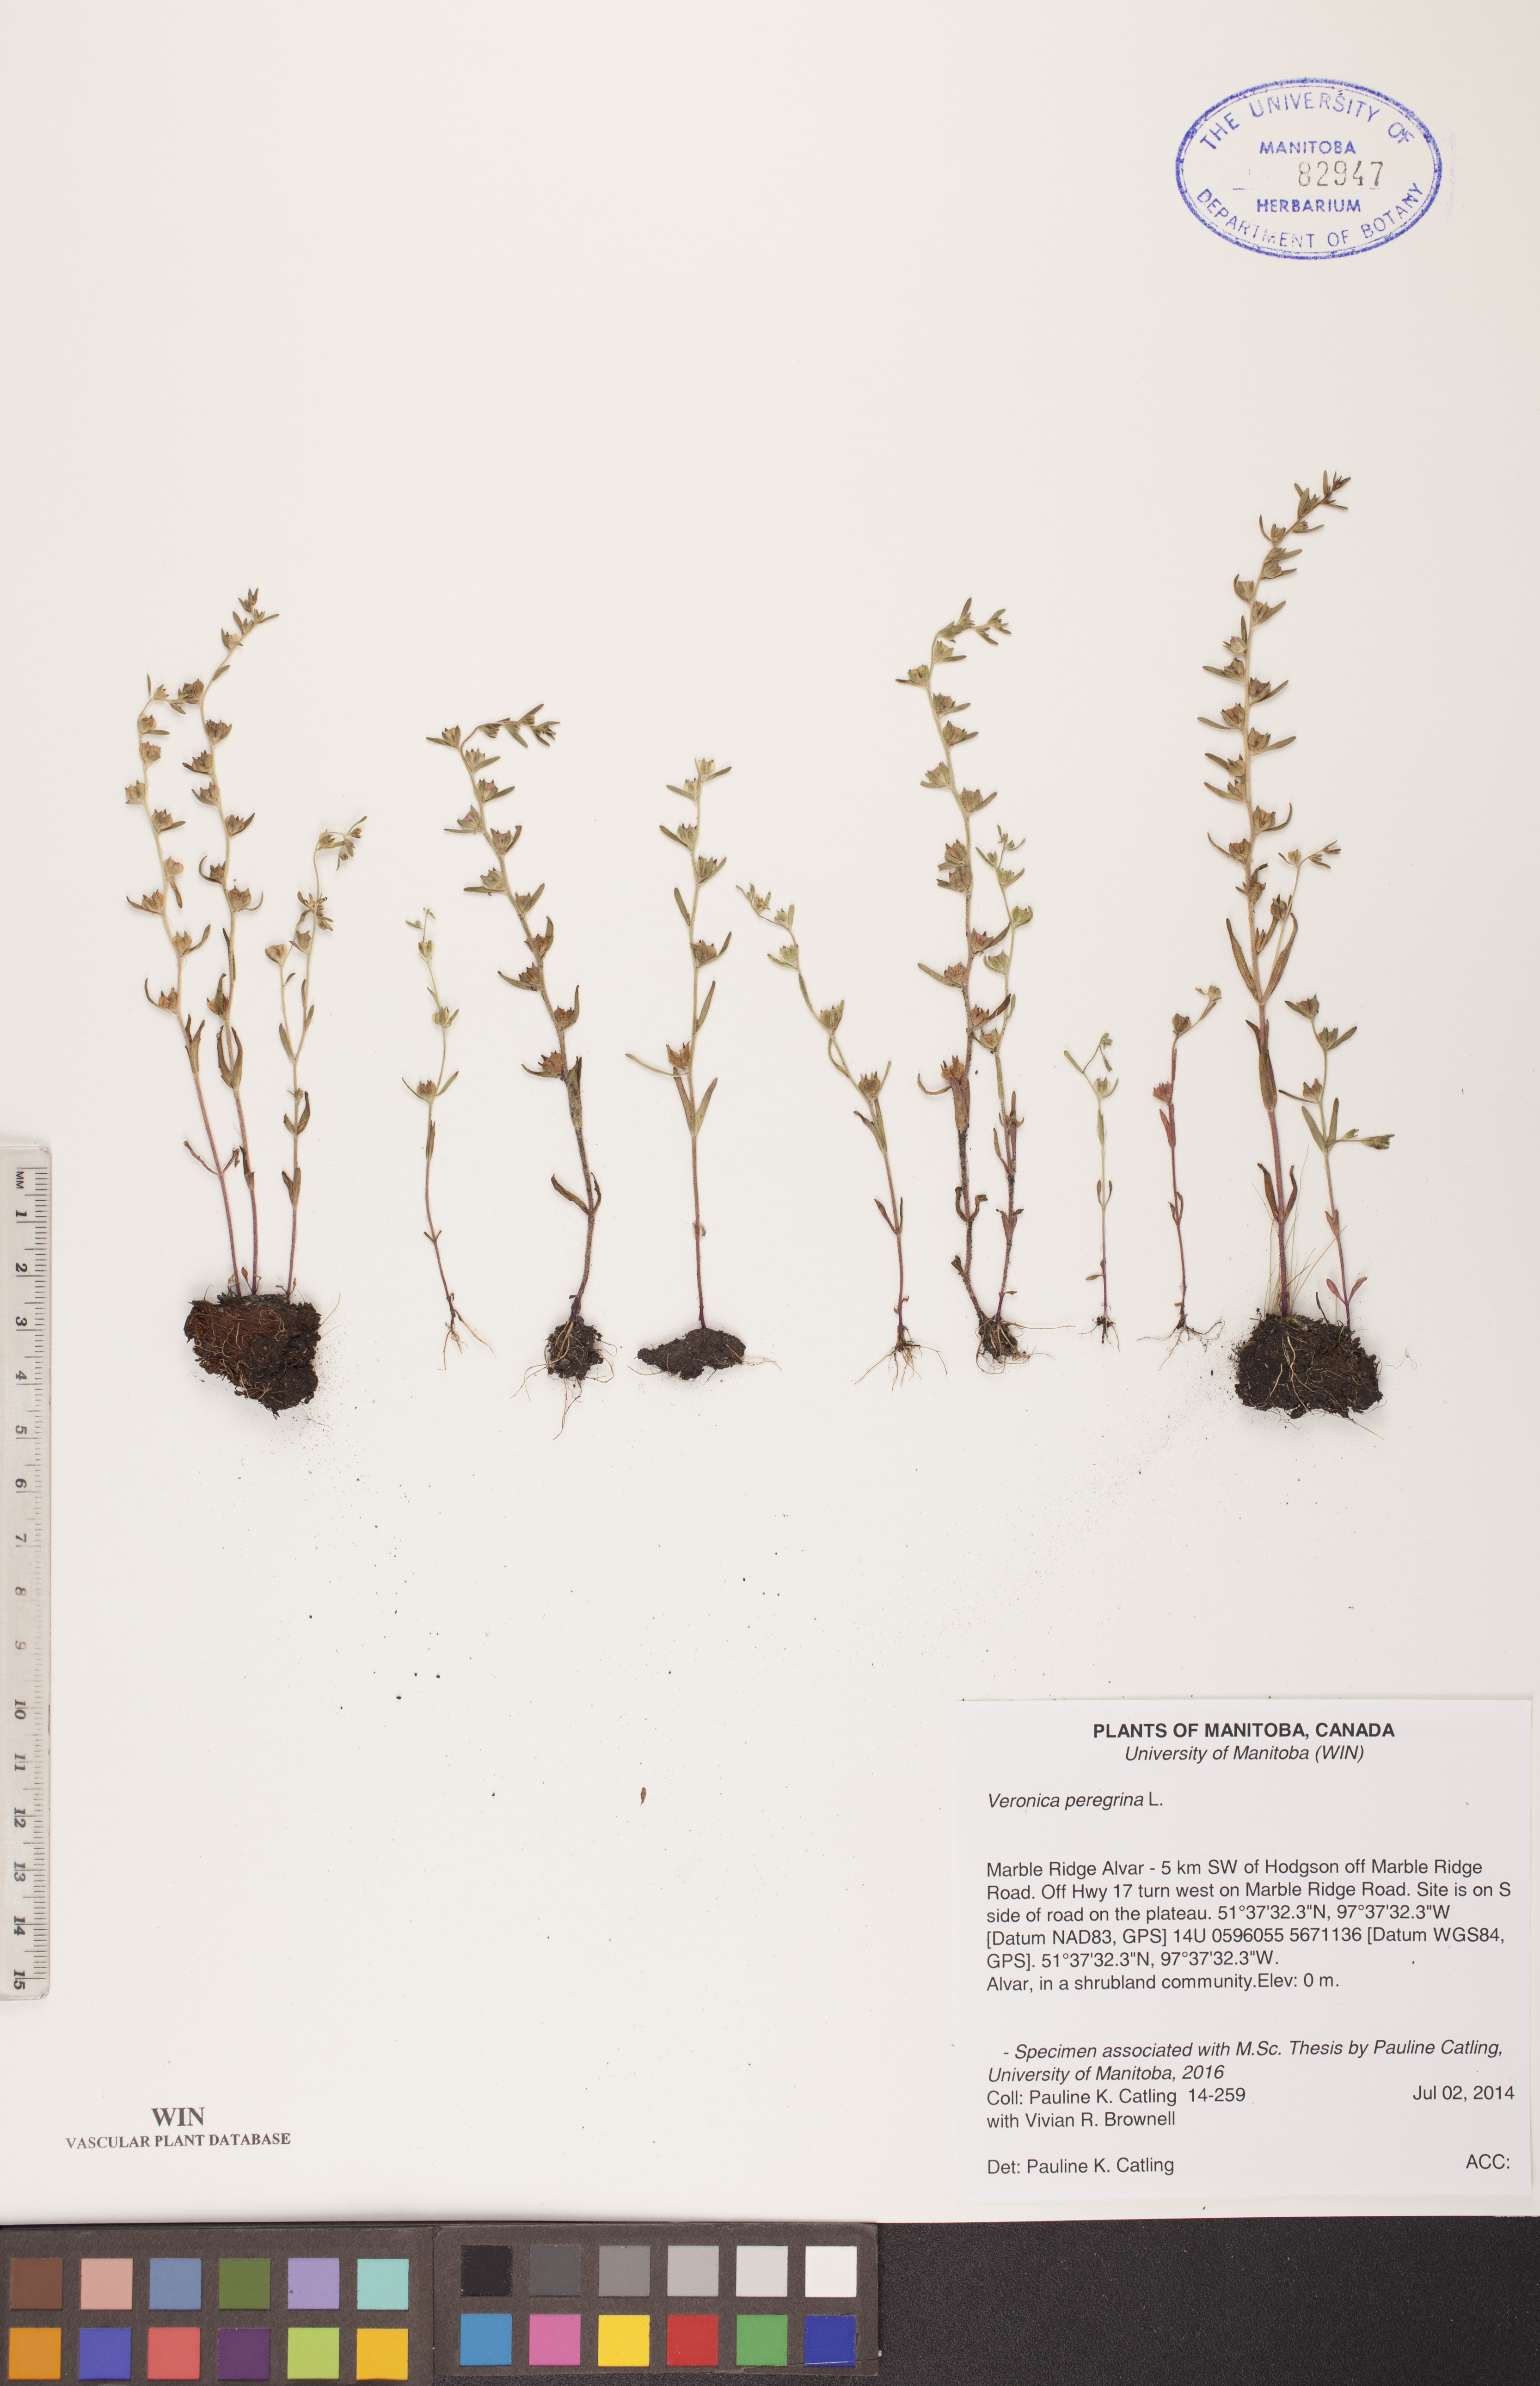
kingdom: Plantae
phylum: Tracheophyta
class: Magnoliopsida
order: Lamiales
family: Plantaginaceae
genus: Veronica
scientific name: Veronica peregrina
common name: Neckweed
